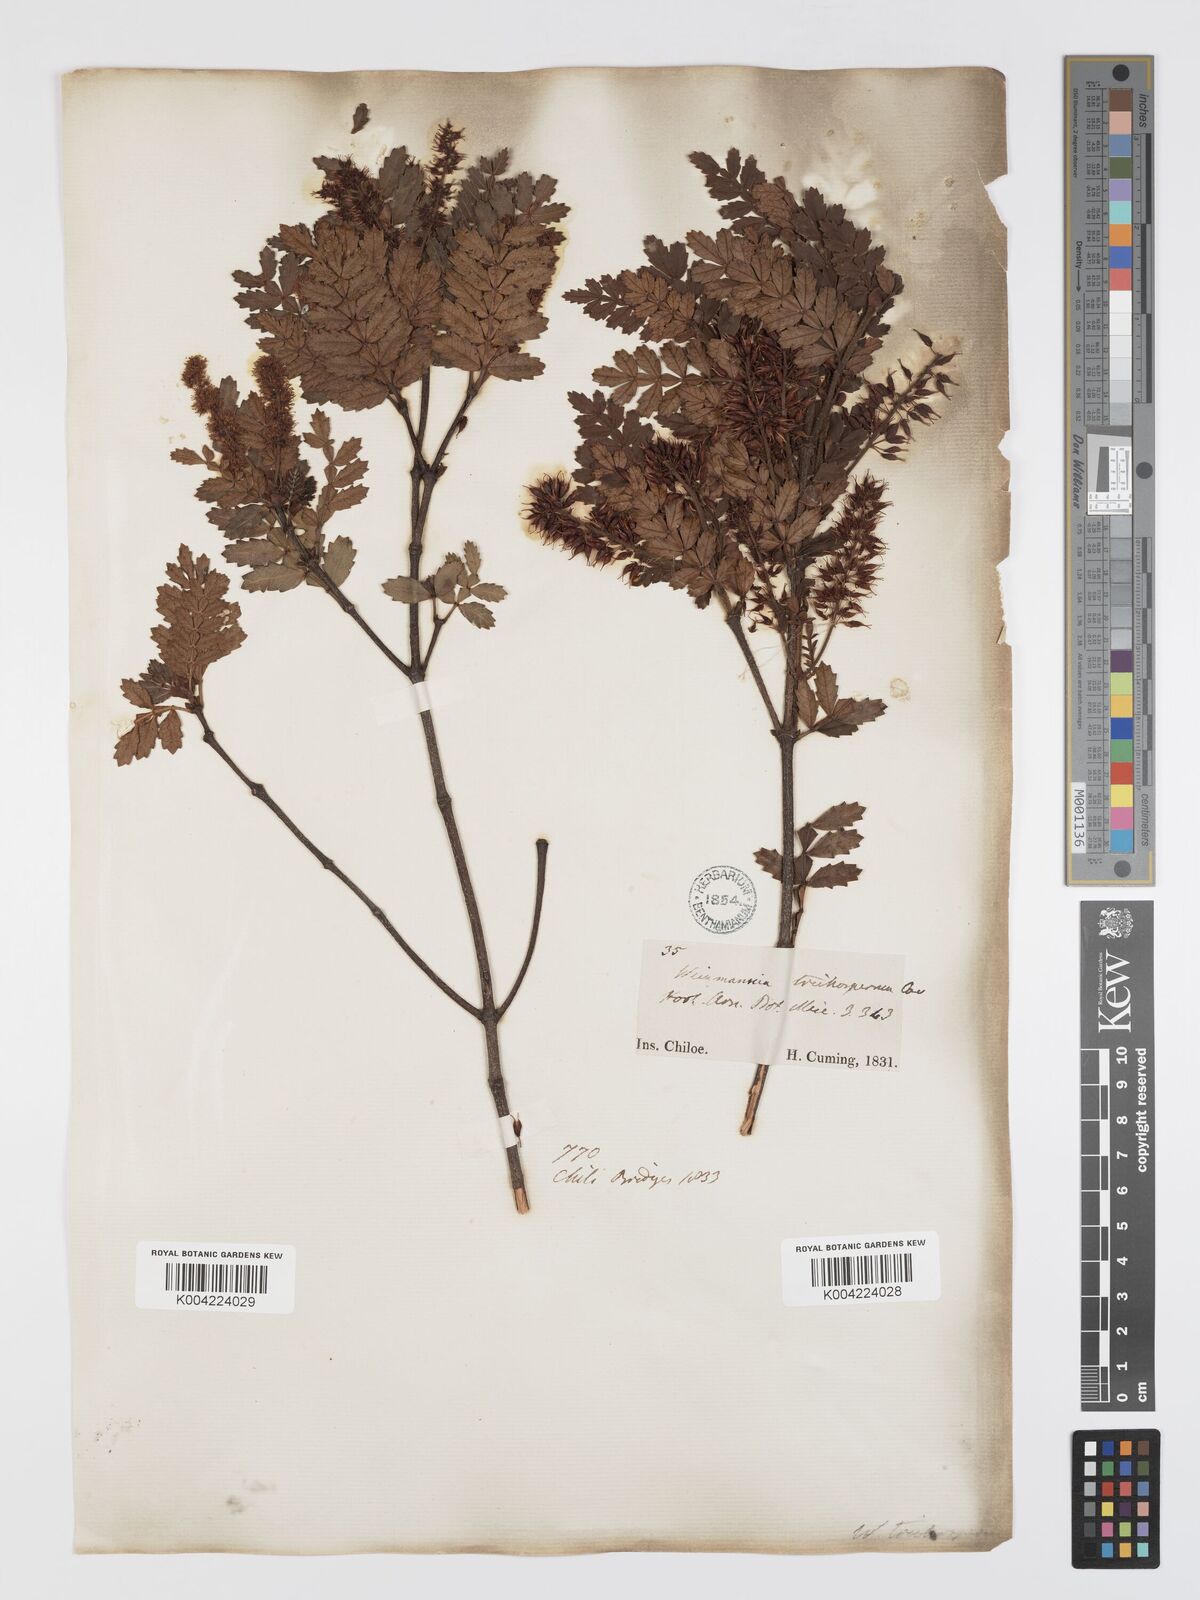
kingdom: Plantae
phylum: Tracheophyta
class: Magnoliopsida
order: Oxalidales
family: Cunoniaceae
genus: Weinmannia
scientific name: Weinmannia trichosperma
